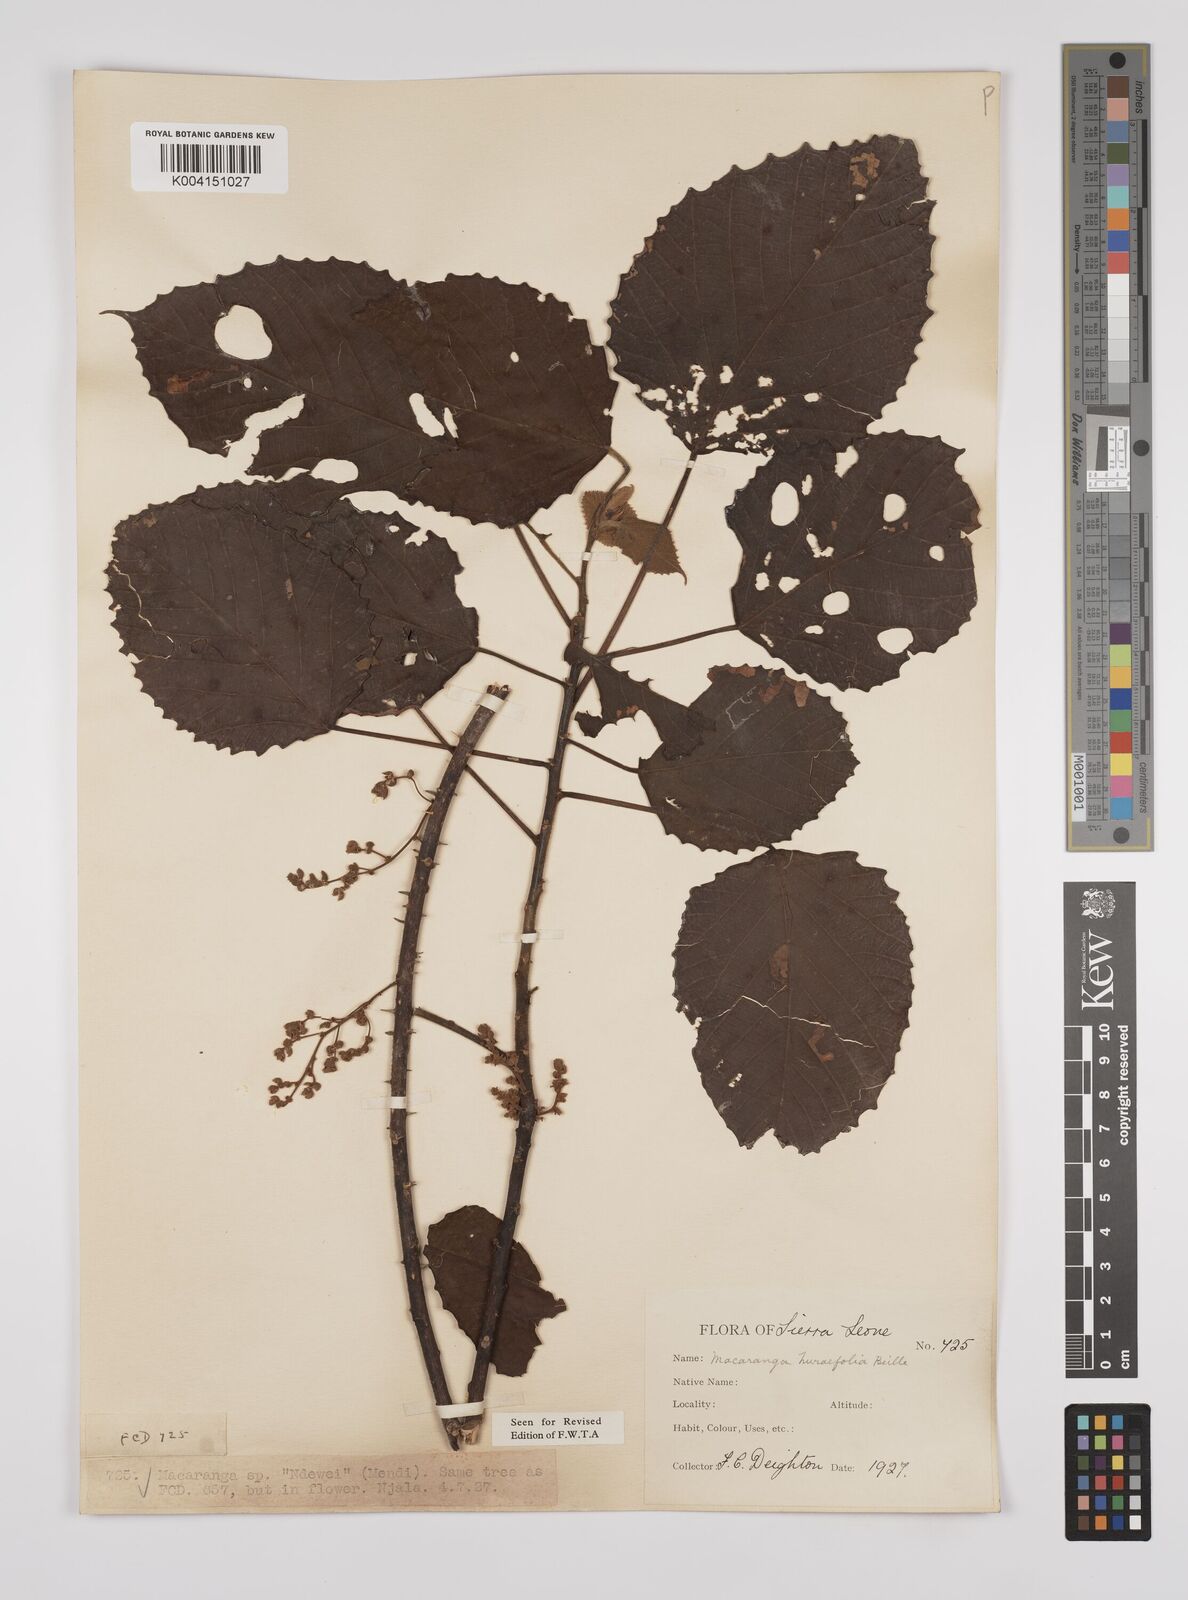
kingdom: Plantae
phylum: Tracheophyta
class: Magnoliopsida
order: Malpighiales
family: Euphorbiaceae
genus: Macaranga
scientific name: Macaranga hurifolia
